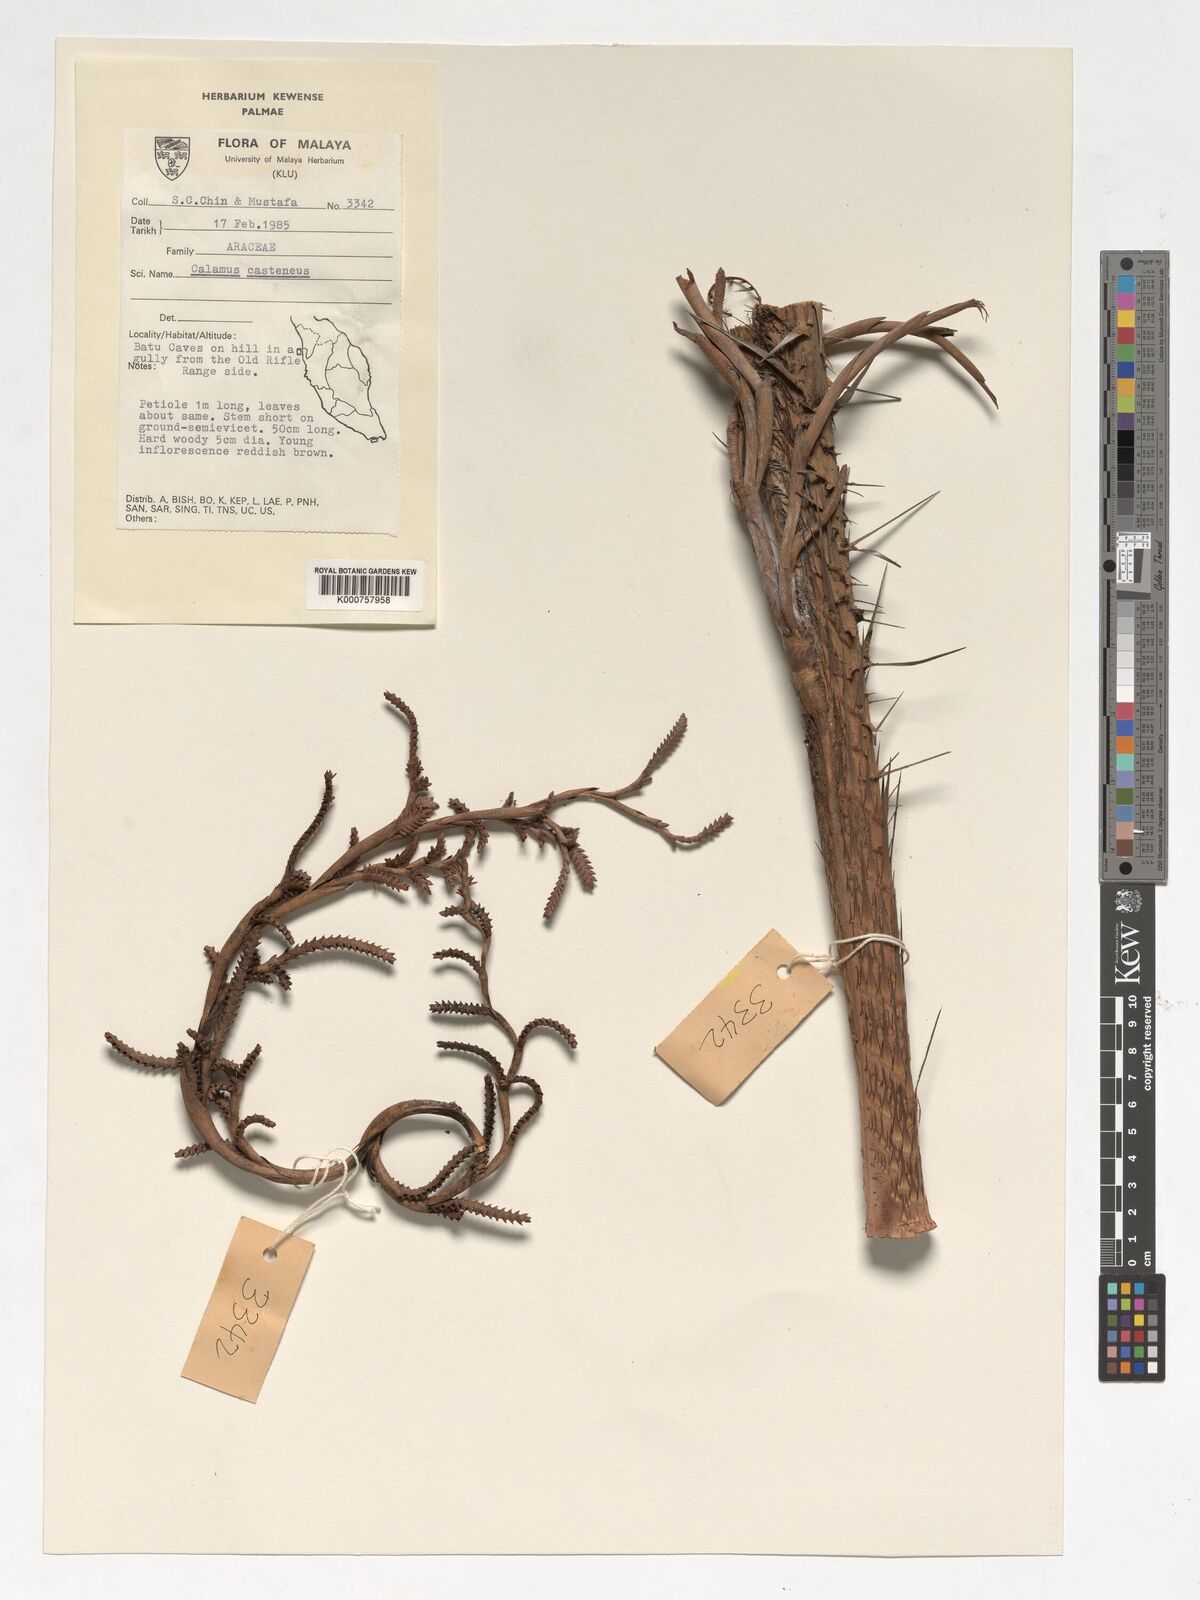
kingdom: Plantae
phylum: Tracheophyta
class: Liliopsida
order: Arecales
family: Arecaceae
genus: Calamus
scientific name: Calamus castaneus
